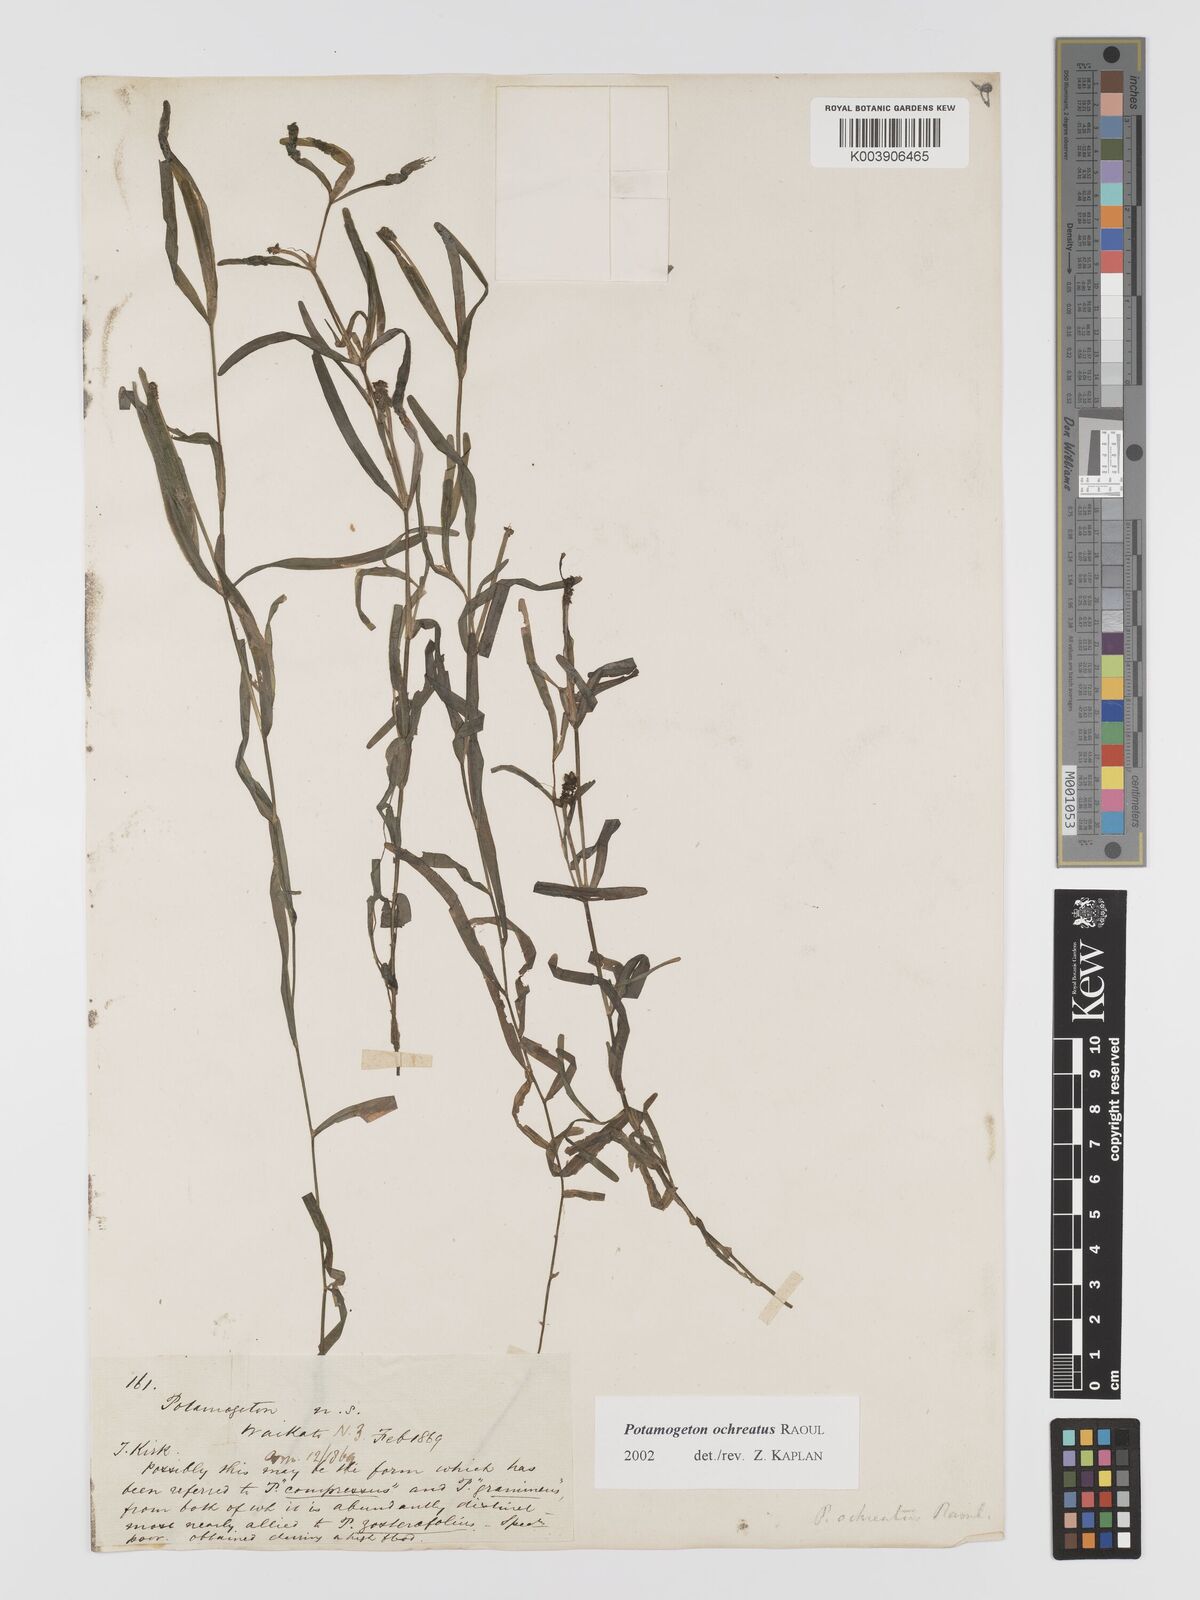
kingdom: Plantae
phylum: Tracheophyta
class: Liliopsida
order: Alismatales
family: Potamogetonaceae
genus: Potamogeton
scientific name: Potamogeton ochreatus
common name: Blunt pondweed
